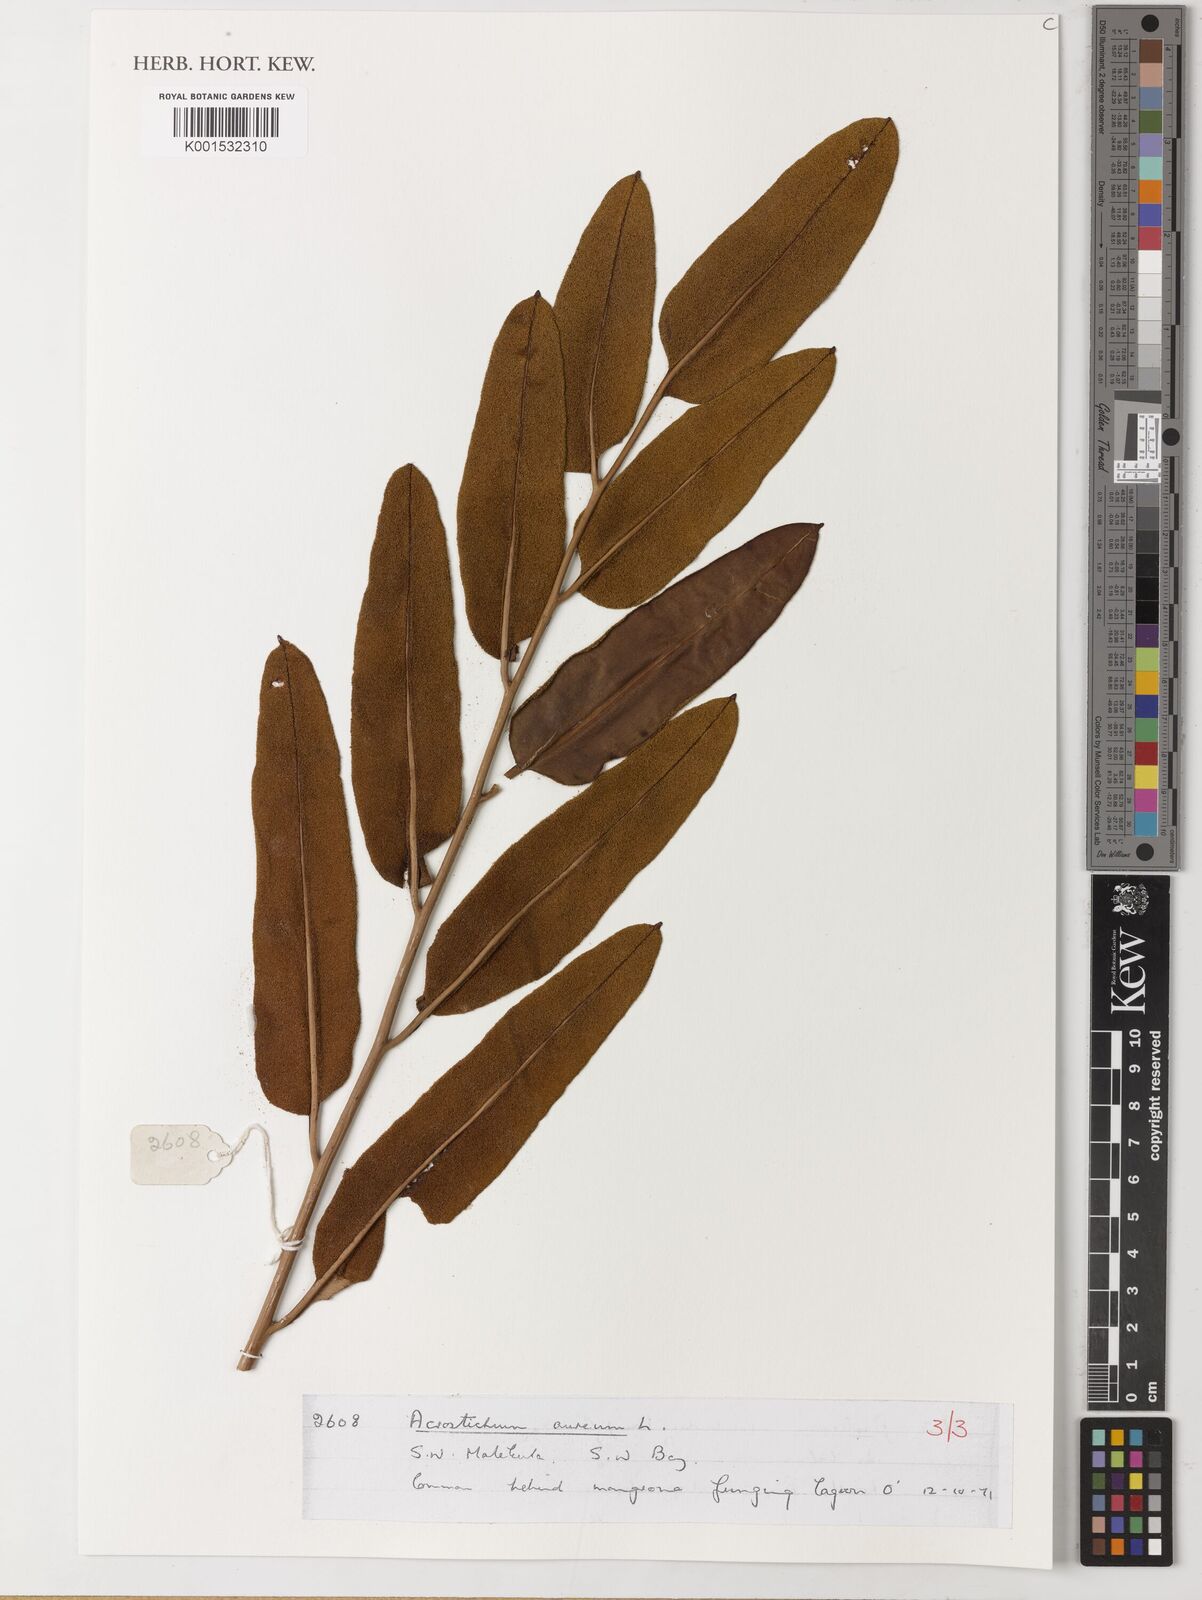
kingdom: Plantae
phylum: Tracheophyta
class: Polypodiopsida
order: Polypodiales
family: Pteridaceae
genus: Acrostichum
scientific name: Acrostichum aureum
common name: Leather fern
